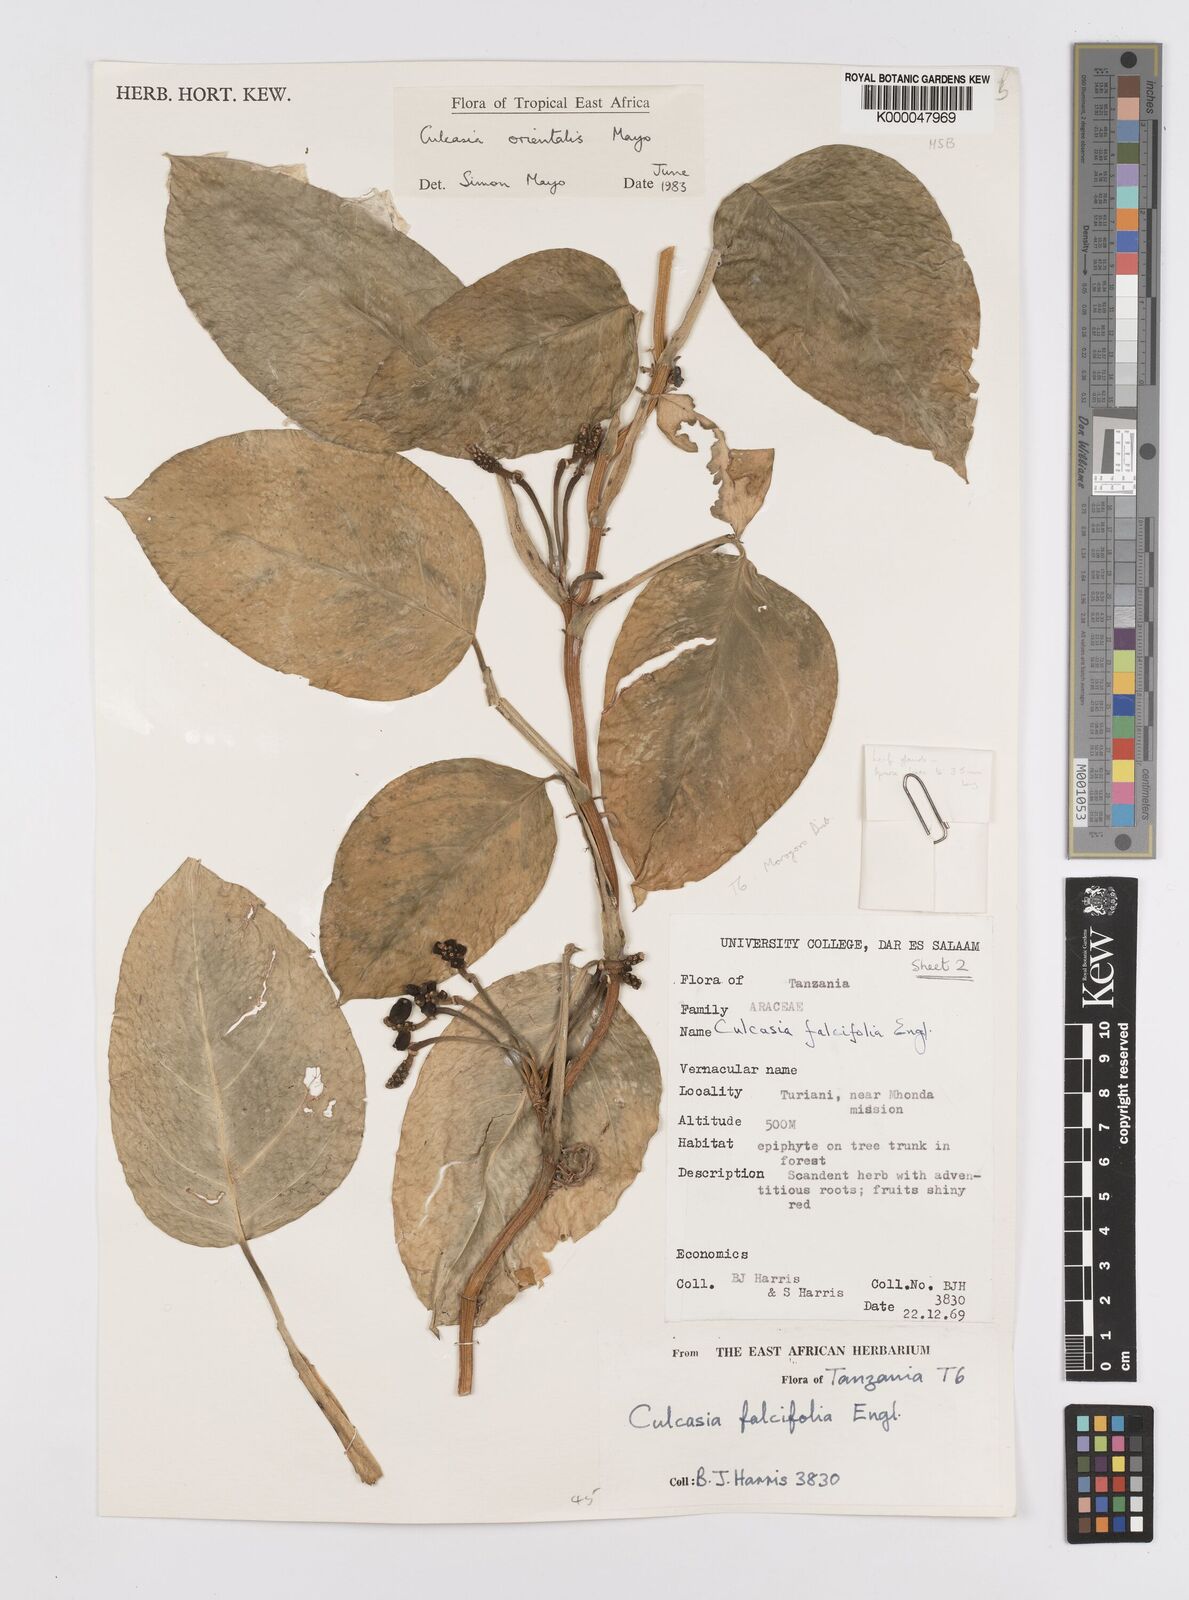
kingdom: Plantae
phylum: Tracheophyta
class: Liliopsida
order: Alismatales
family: Araceae
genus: Culcasia
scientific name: Culcasia orientalis
